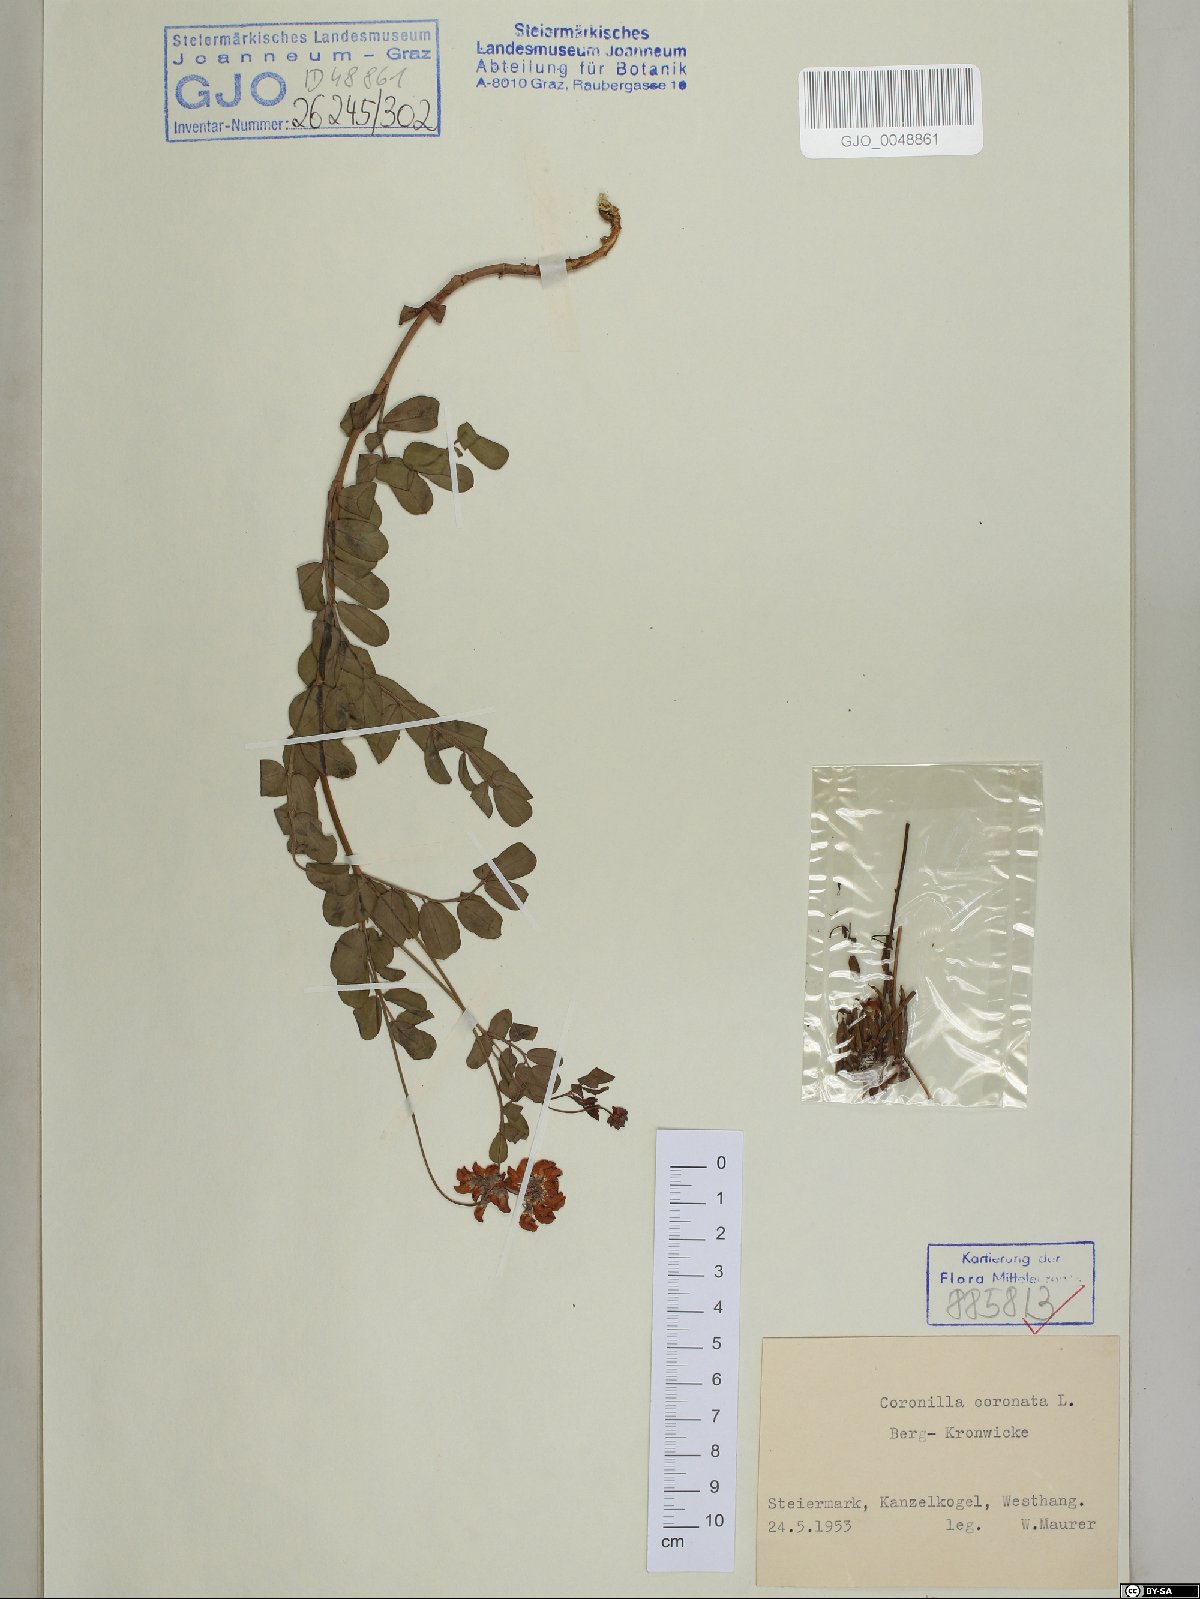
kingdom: Plantae
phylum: Tracheophyta
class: Magnoliopsida
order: Fabales
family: Fabaceae
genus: Coronilla
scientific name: Coronilla coronata
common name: Scorpion-vetch
